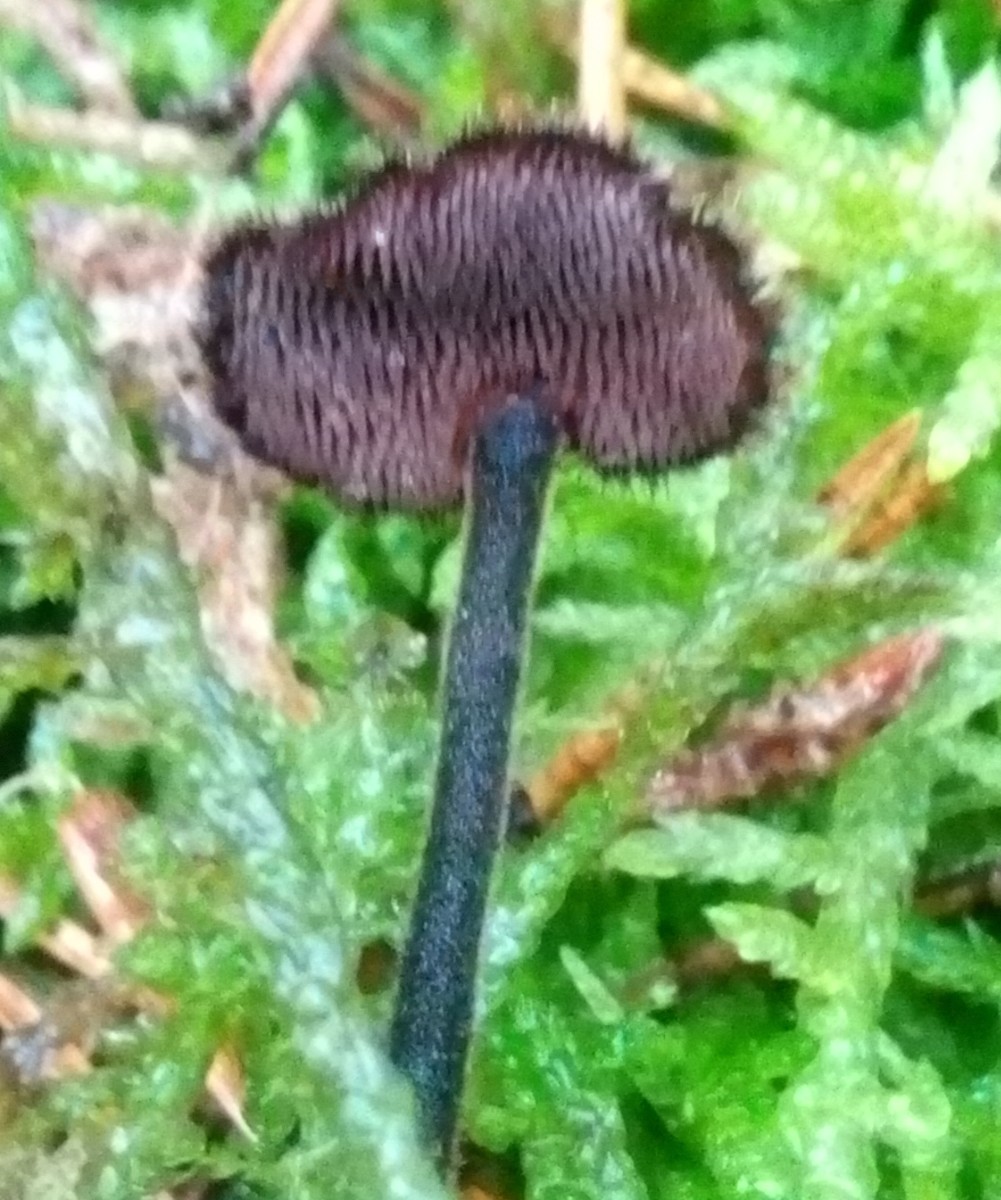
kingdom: Fungi
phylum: Basidiomycota
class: Agaricomycetes
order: Russulales
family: Auriscalpiaceae
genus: Auriscalpium
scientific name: Auriscalpium vulgare
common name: koglepigsvamp
